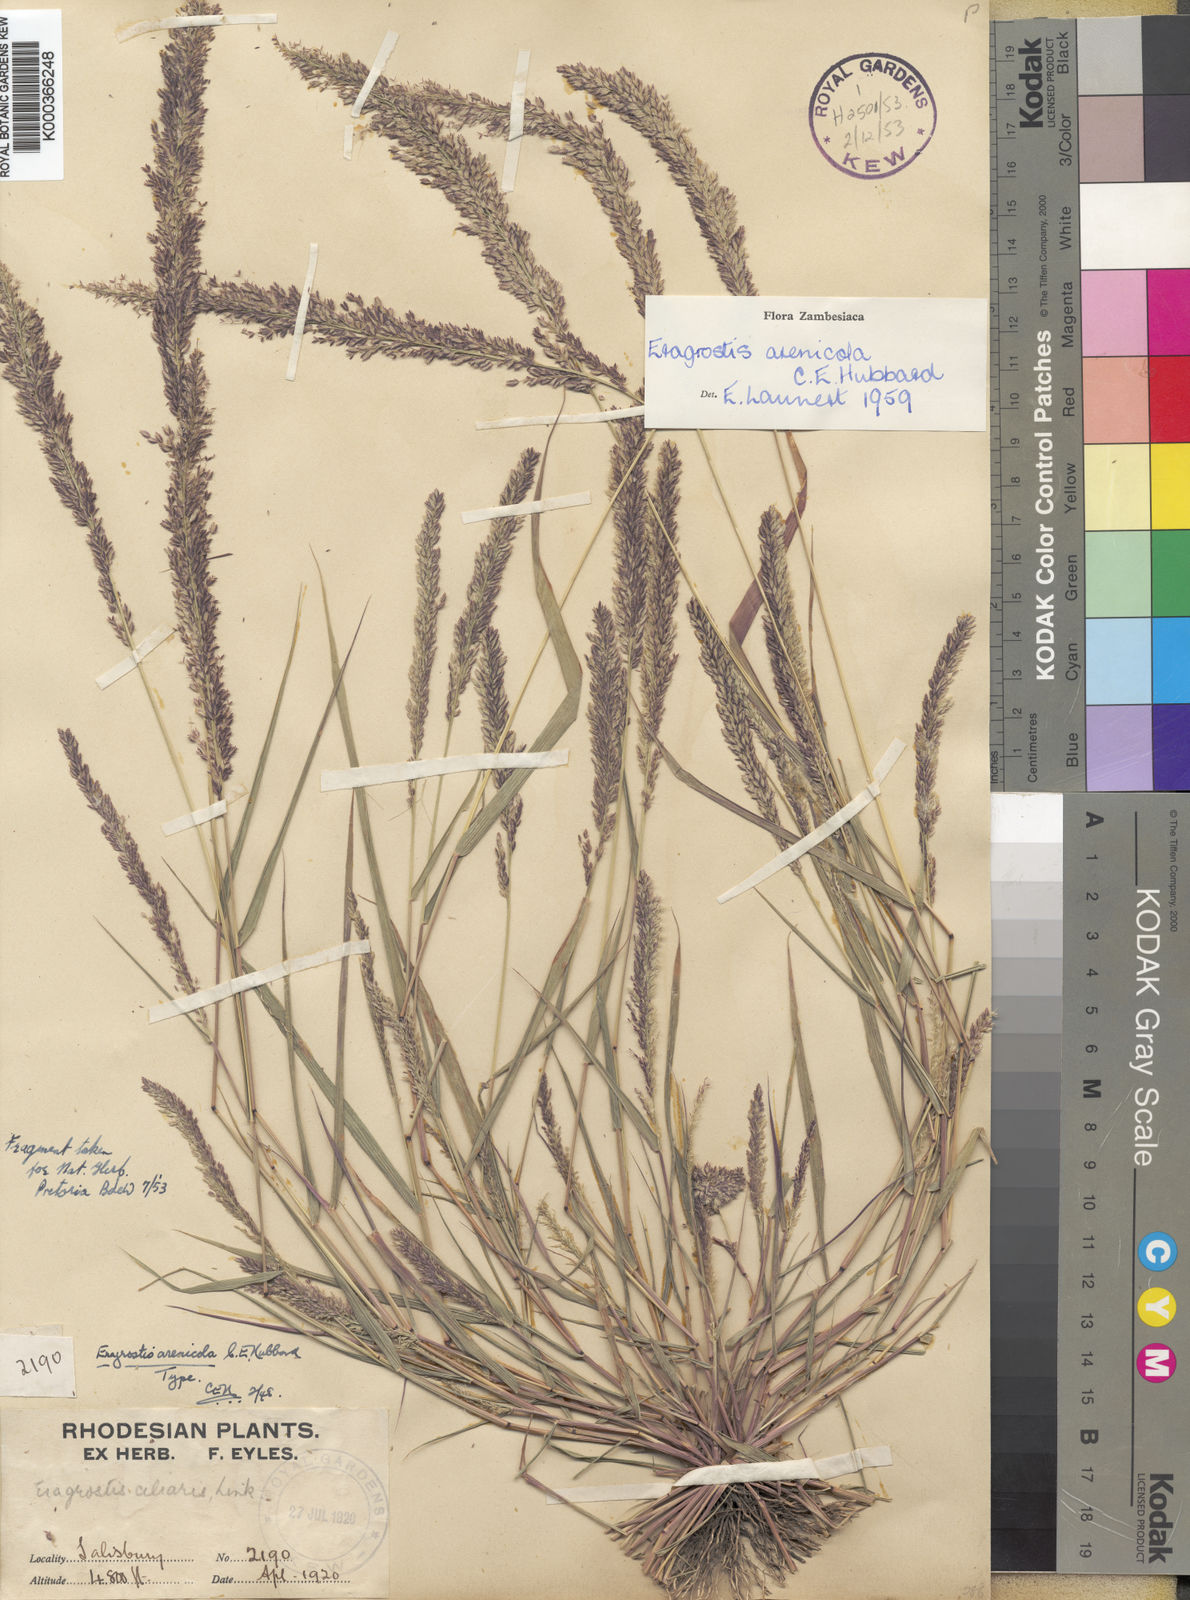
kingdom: Plantae
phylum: Tracheophyta
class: Liliopsida
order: Poales
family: Poaceae
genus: Eragrostis
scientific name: Eragrostis arenicola
